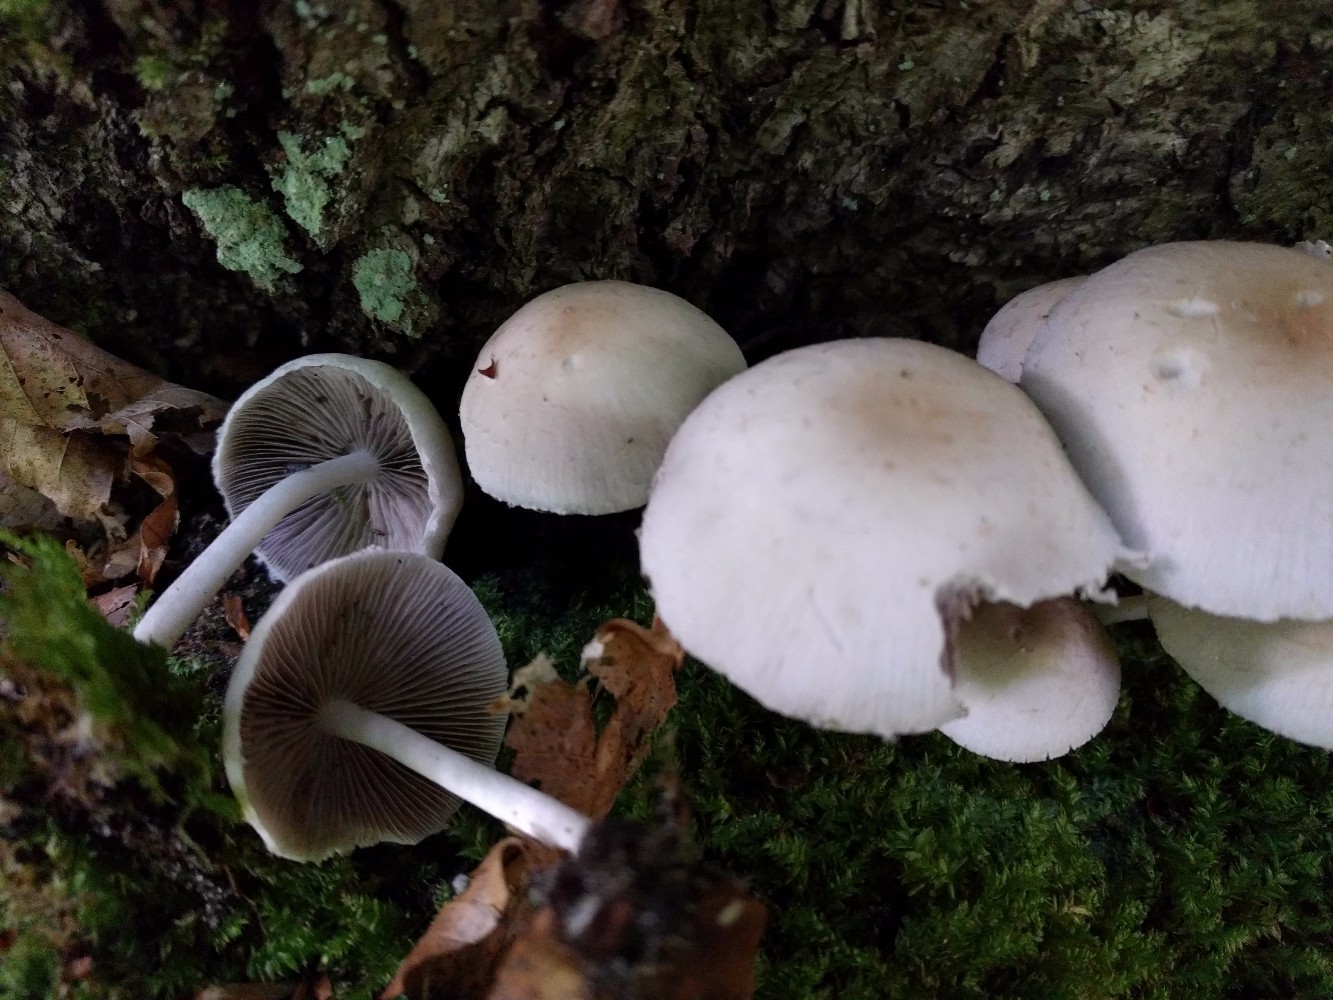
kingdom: Fungi
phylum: Basidiomycota
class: Agaricomycetes
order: Agaricales
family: Psathyrellaceae
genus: Candolleomyces
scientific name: Candolleomyces candolleanus
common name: Candolles mørkhat
